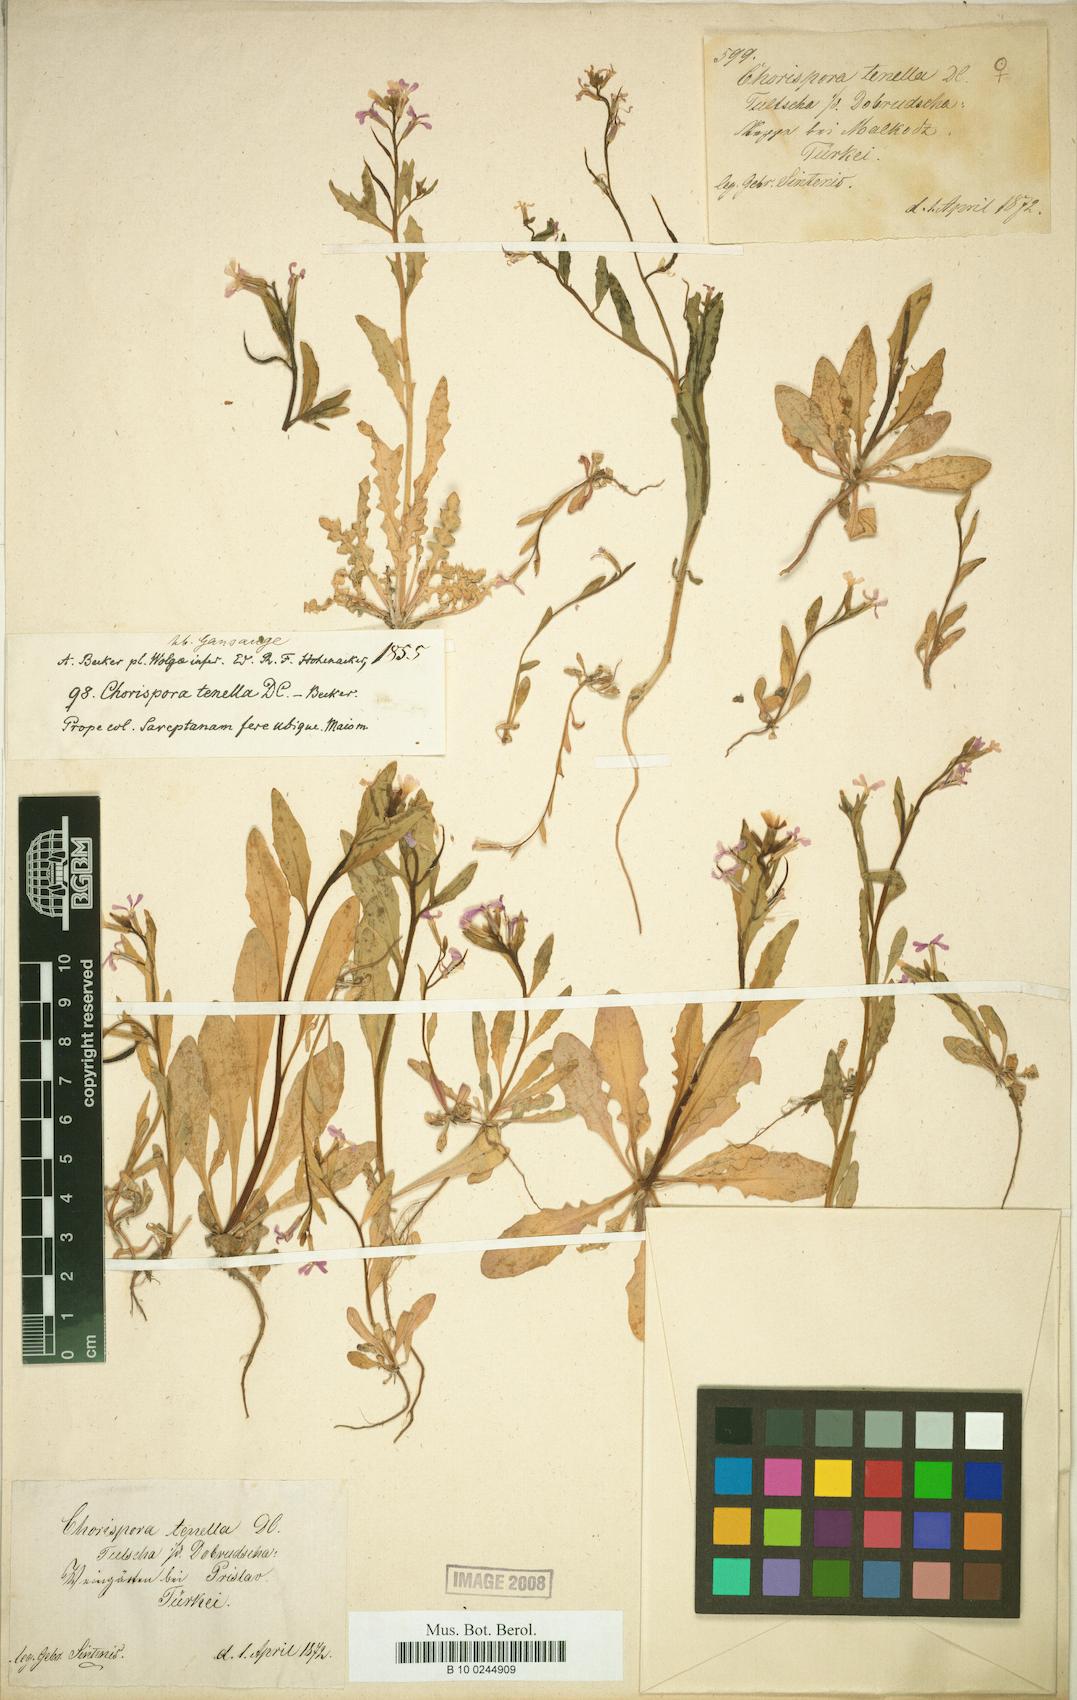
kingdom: Plantae
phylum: Tracheophyta
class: Magnoliopsida
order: Brassicales
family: Brassicaceae
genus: Chorispora
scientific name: Chorispora tenella
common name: Crossflower
